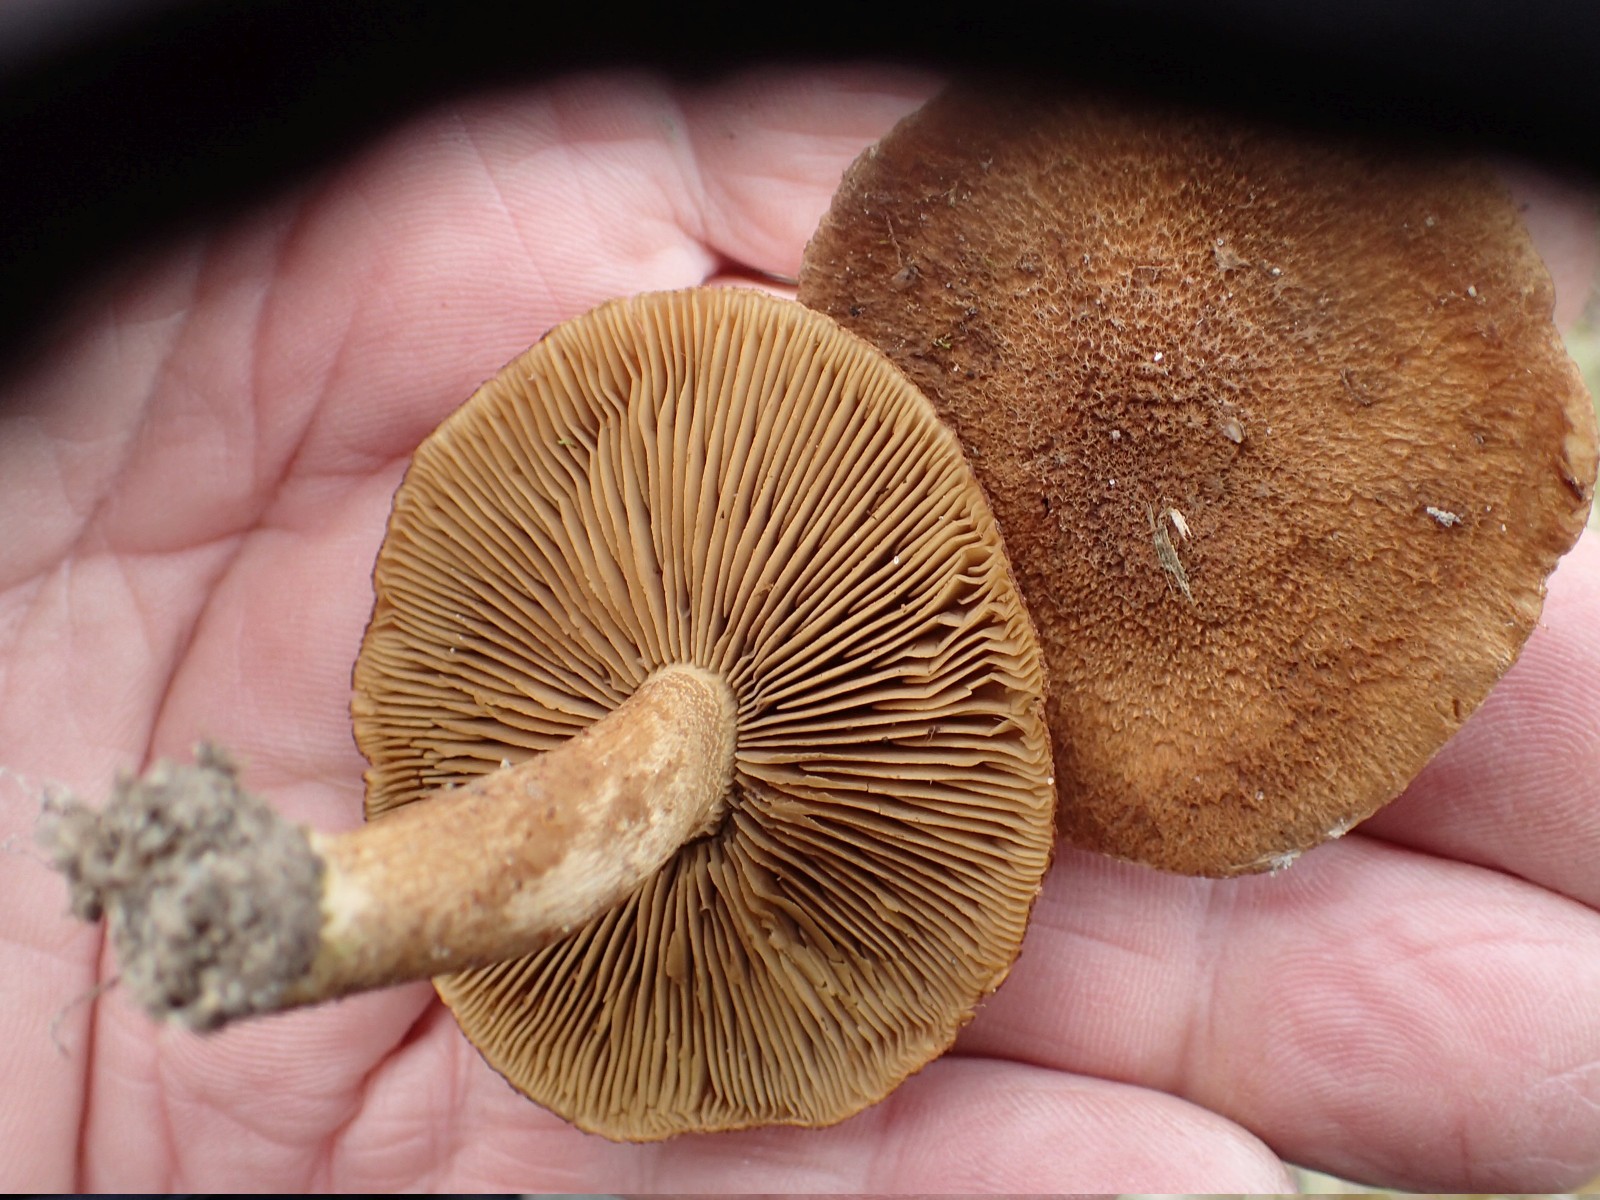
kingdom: Fungi
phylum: Basidiomycota
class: Agaricomycetes
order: Agaricales
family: Inocybaceae
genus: Inocybe
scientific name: Inocybe dulcamara
